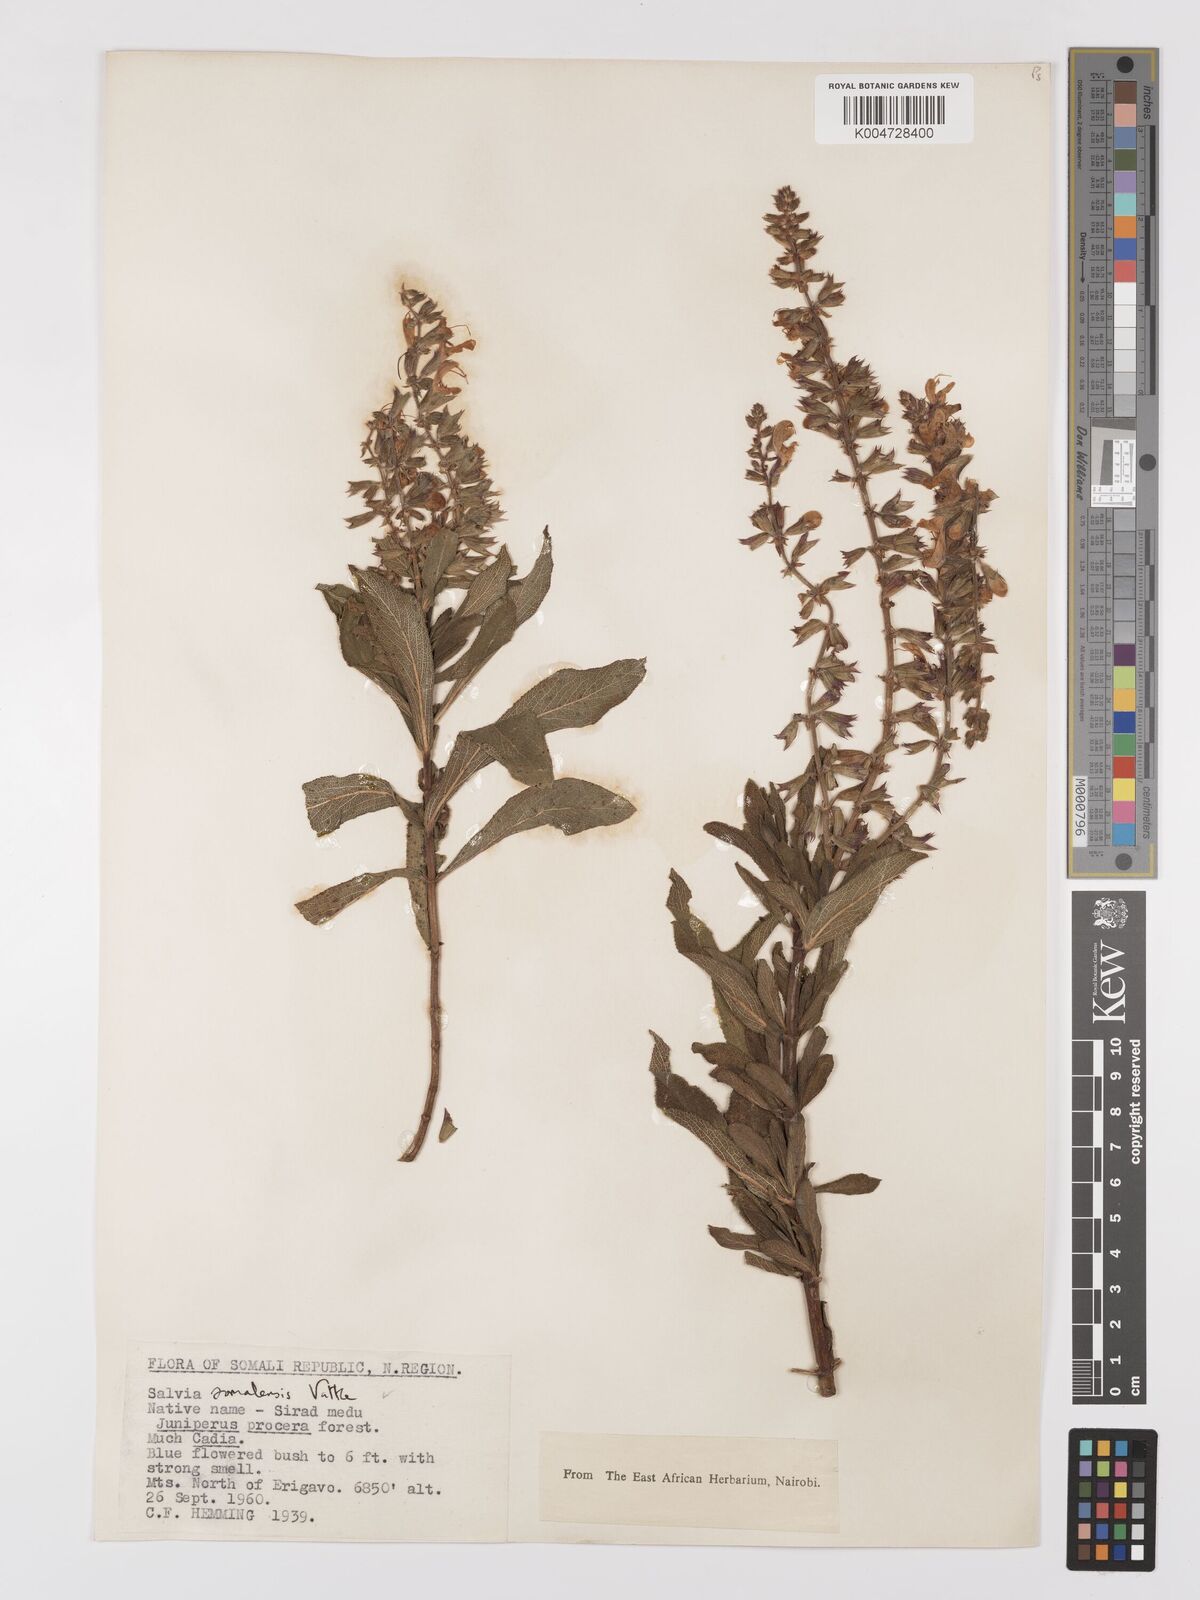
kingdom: Plantae
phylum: Tracheophyta
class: Magnoliopsida
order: Lamiales
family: Lamiaceae
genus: Salvia
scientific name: Salvia somalensis
